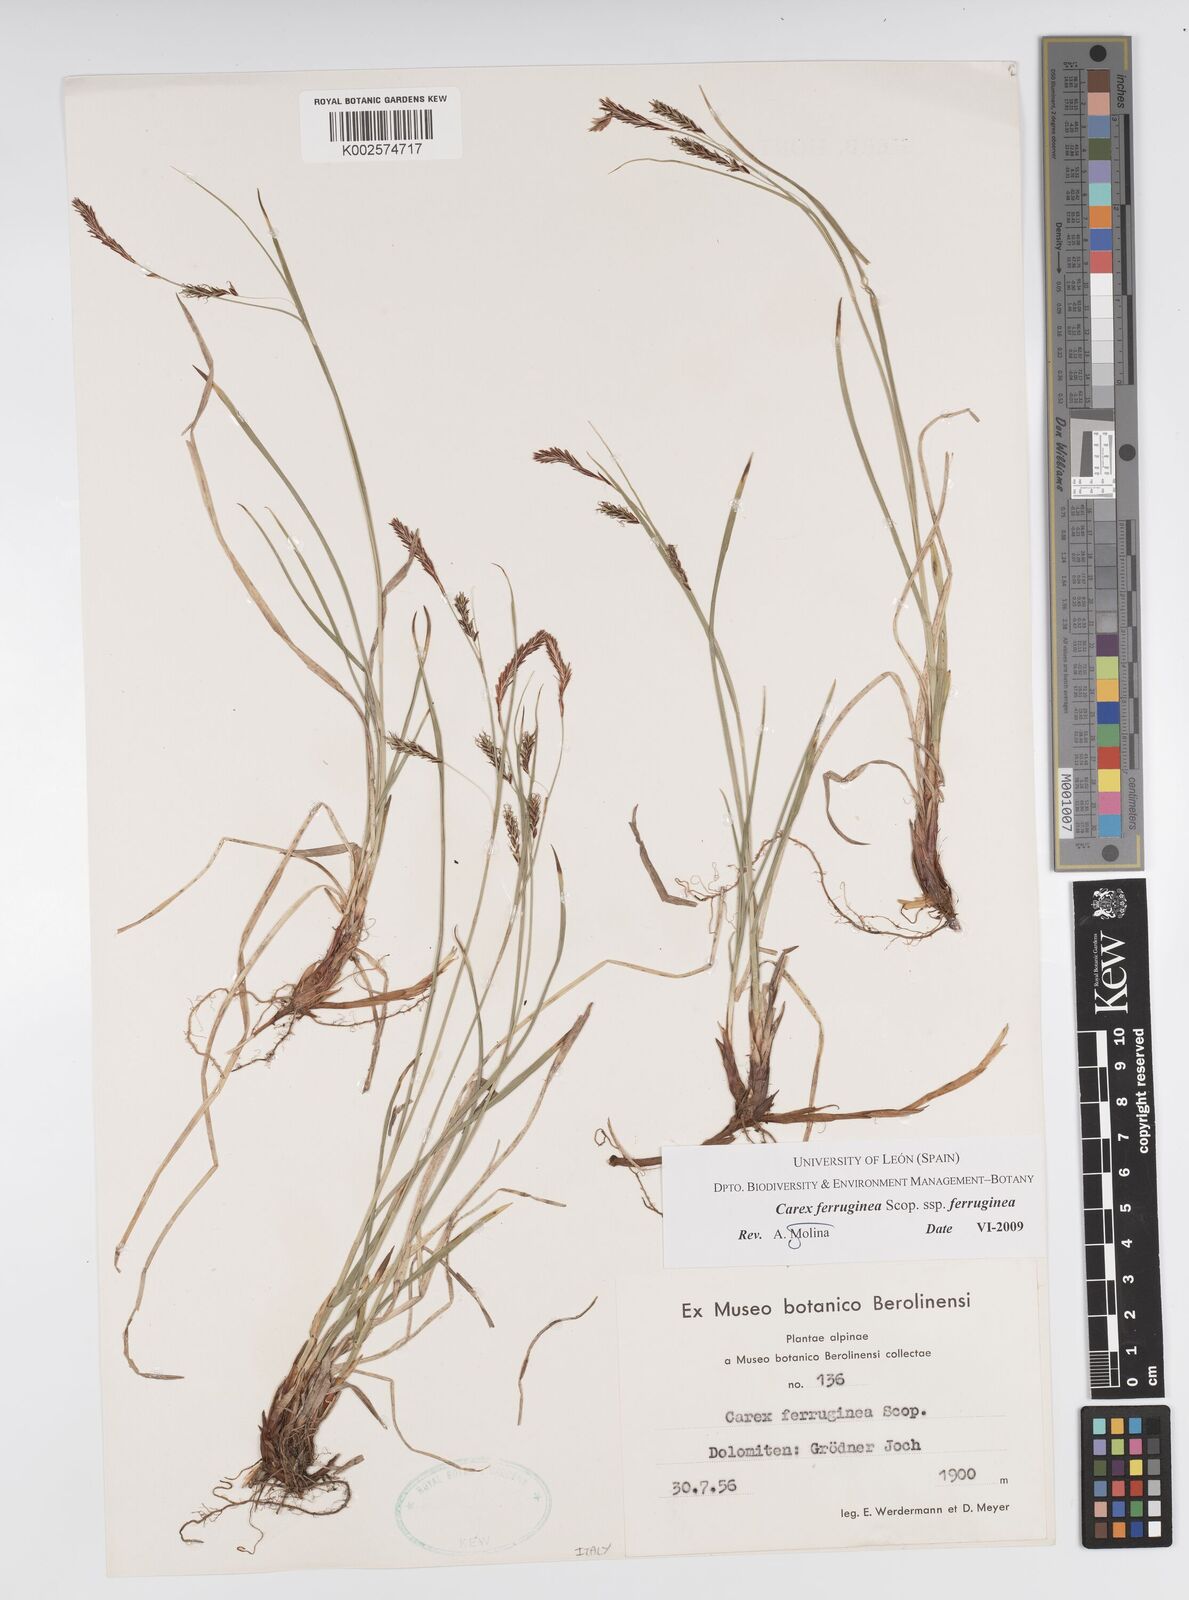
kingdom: Plantae
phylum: Tracheophyta
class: Liliopsida
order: Poales
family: Cyperaceae
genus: Carex
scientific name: Carex ferruginea
